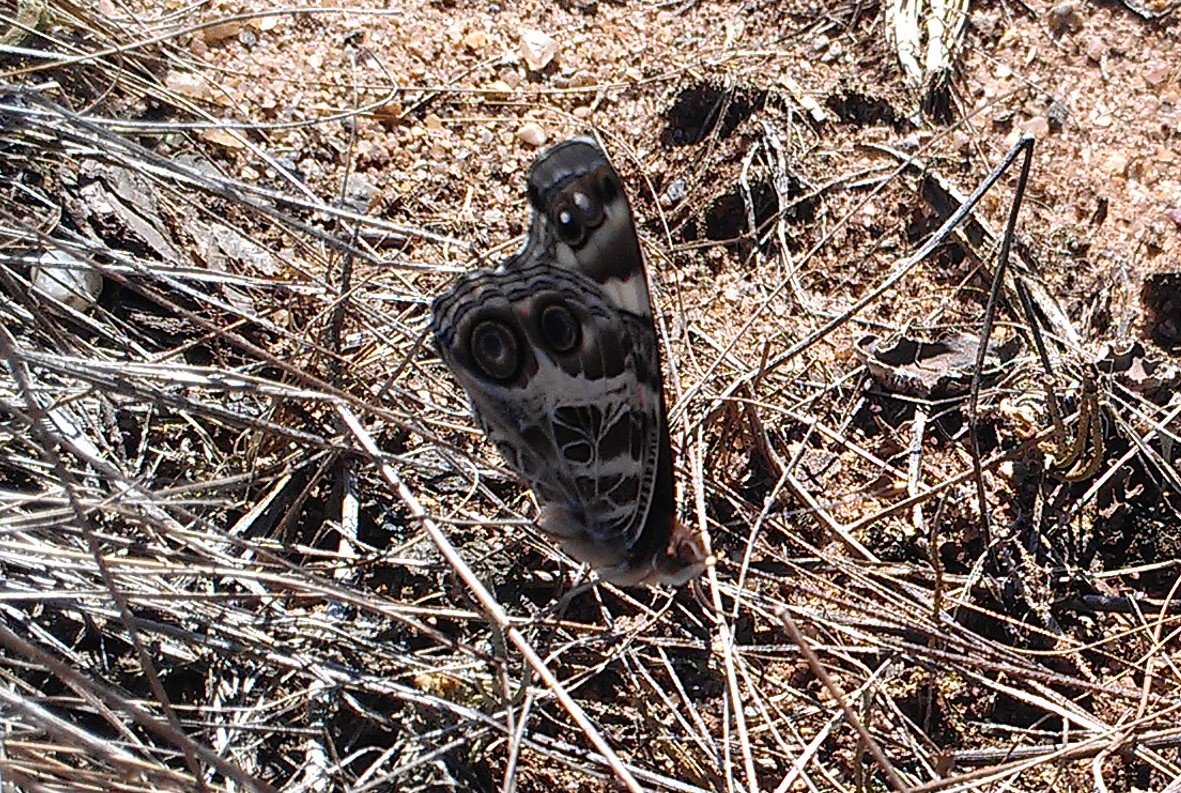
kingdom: Animalia
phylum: Arthropoda
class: Insecta
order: Lepidoptera
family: Nymphalidae
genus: Vanessa
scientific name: Vanessa virginiensis
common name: American Lady
